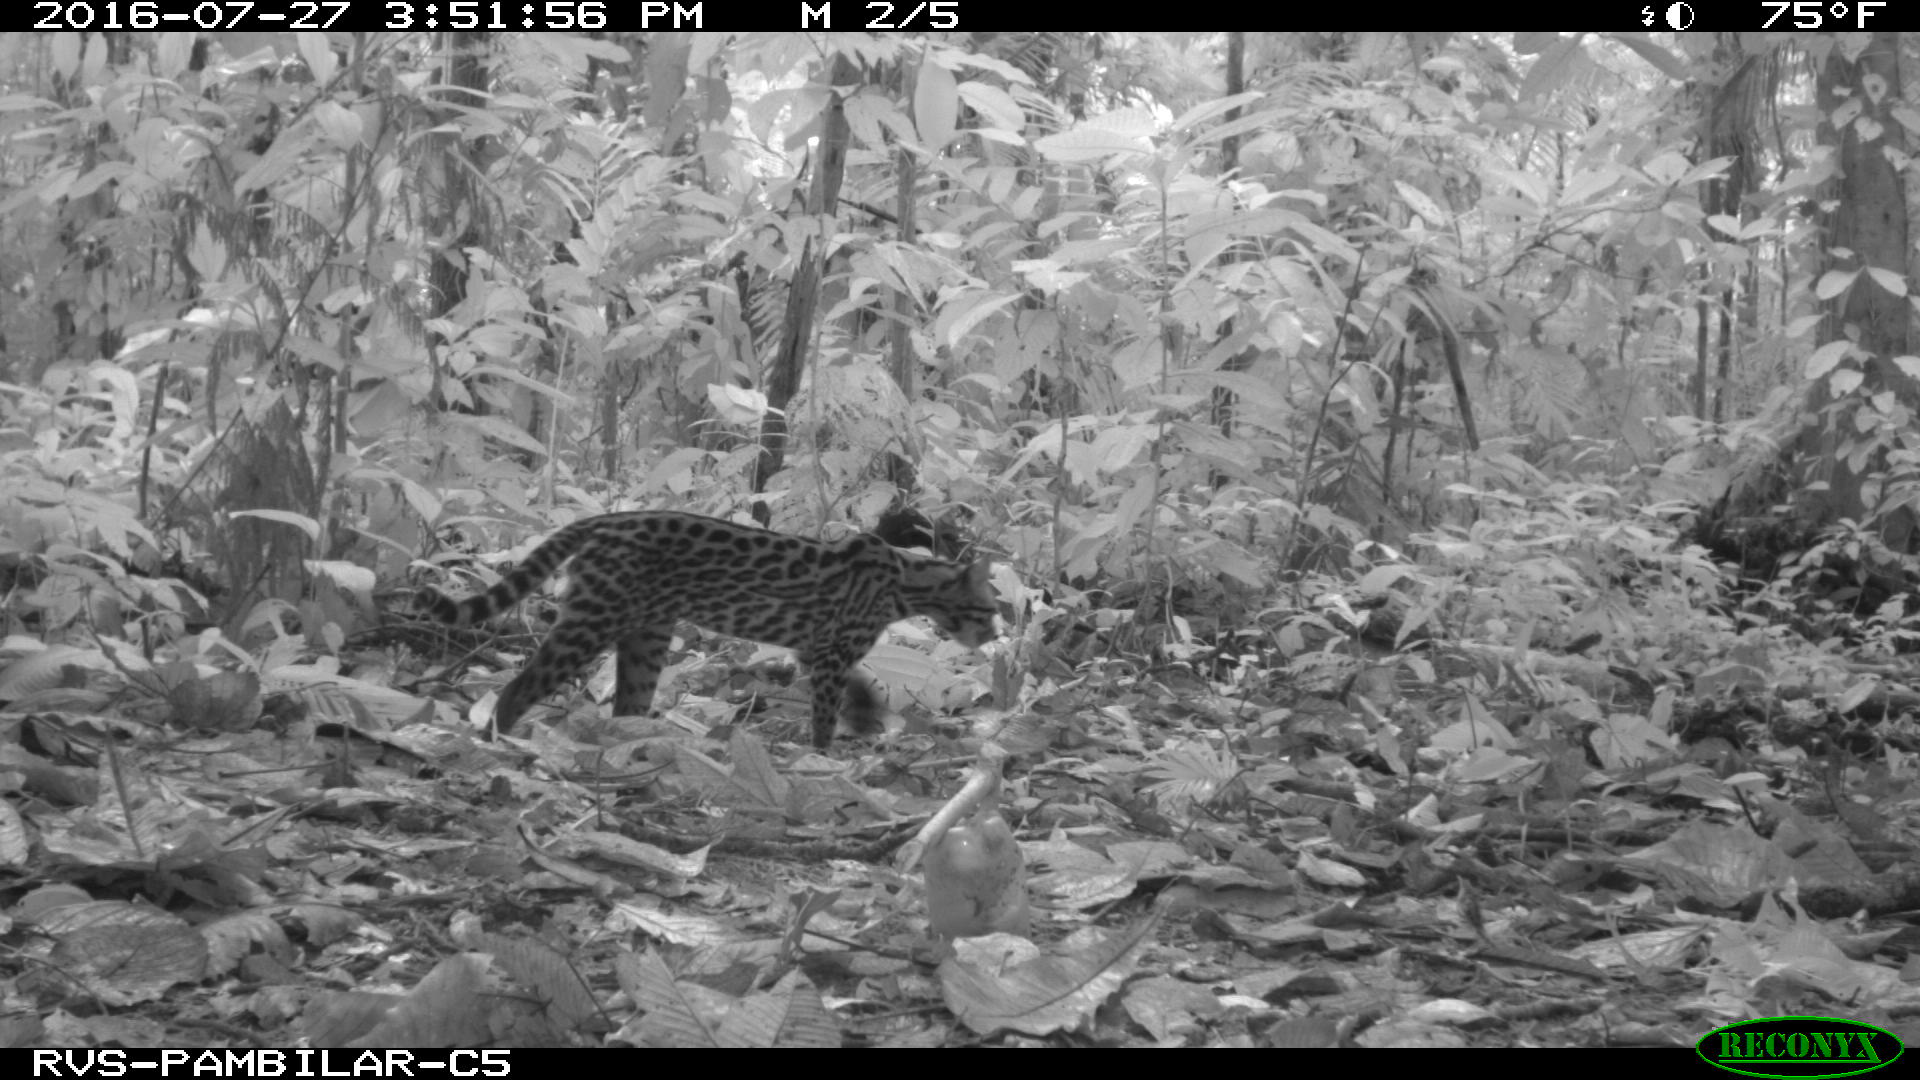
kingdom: Animalia
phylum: Chordata
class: Mammalia
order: Carnivora
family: Felidae
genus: Leopardus
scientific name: Leopardus pardalis
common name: Ocelot
